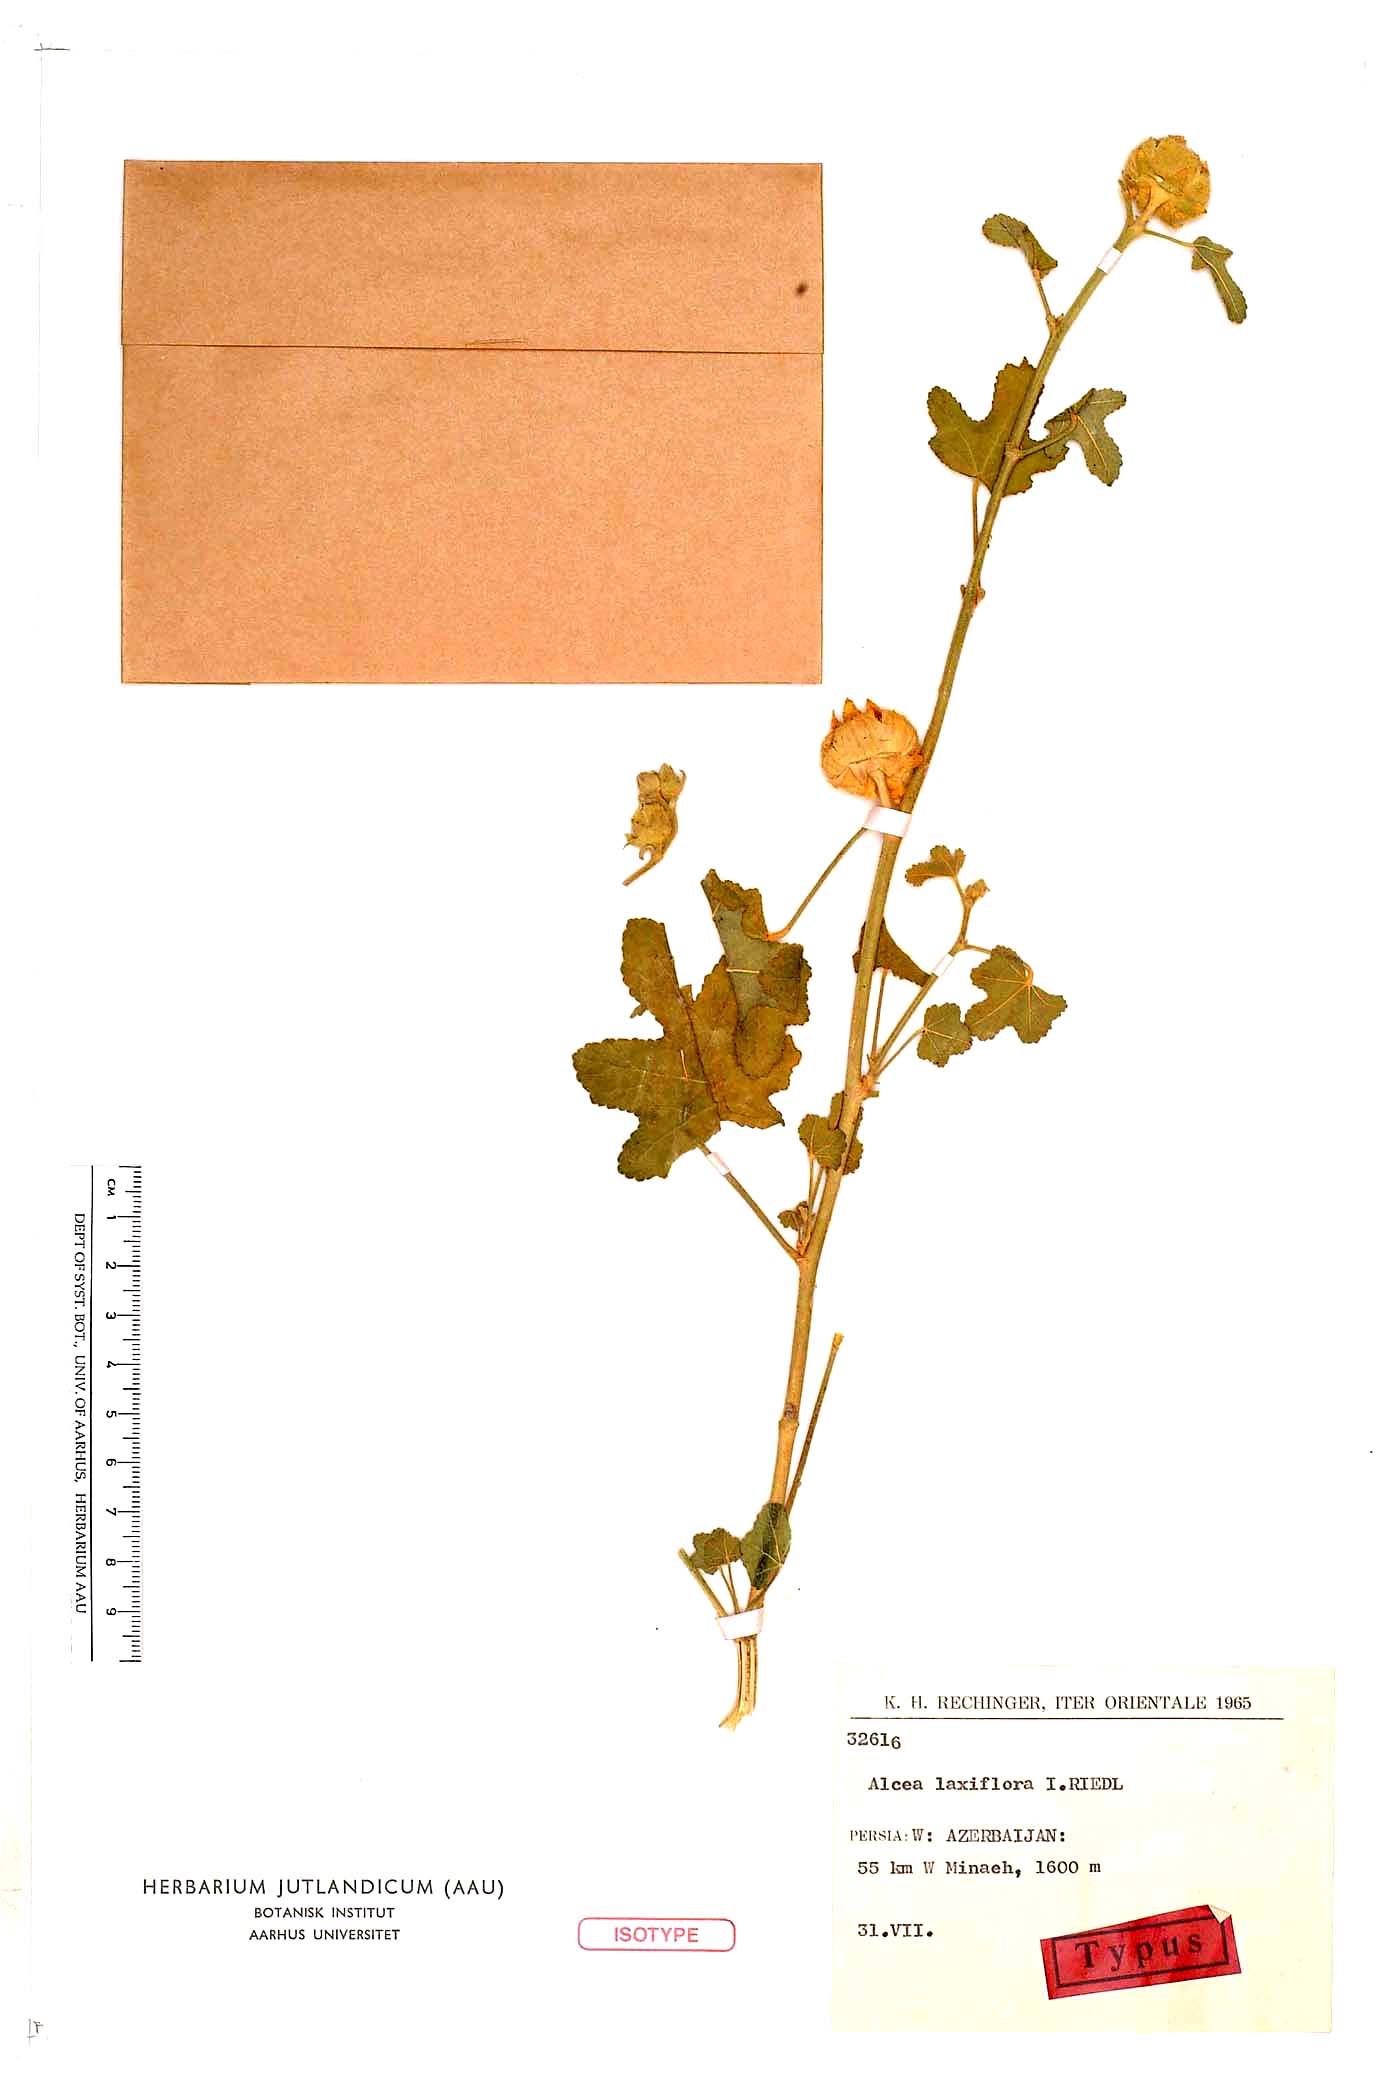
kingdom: Plantae
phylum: Tracheophyta
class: Magnoliopsida
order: Malvales
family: Malvaceae
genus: Alcea
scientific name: Alcea kurdica
